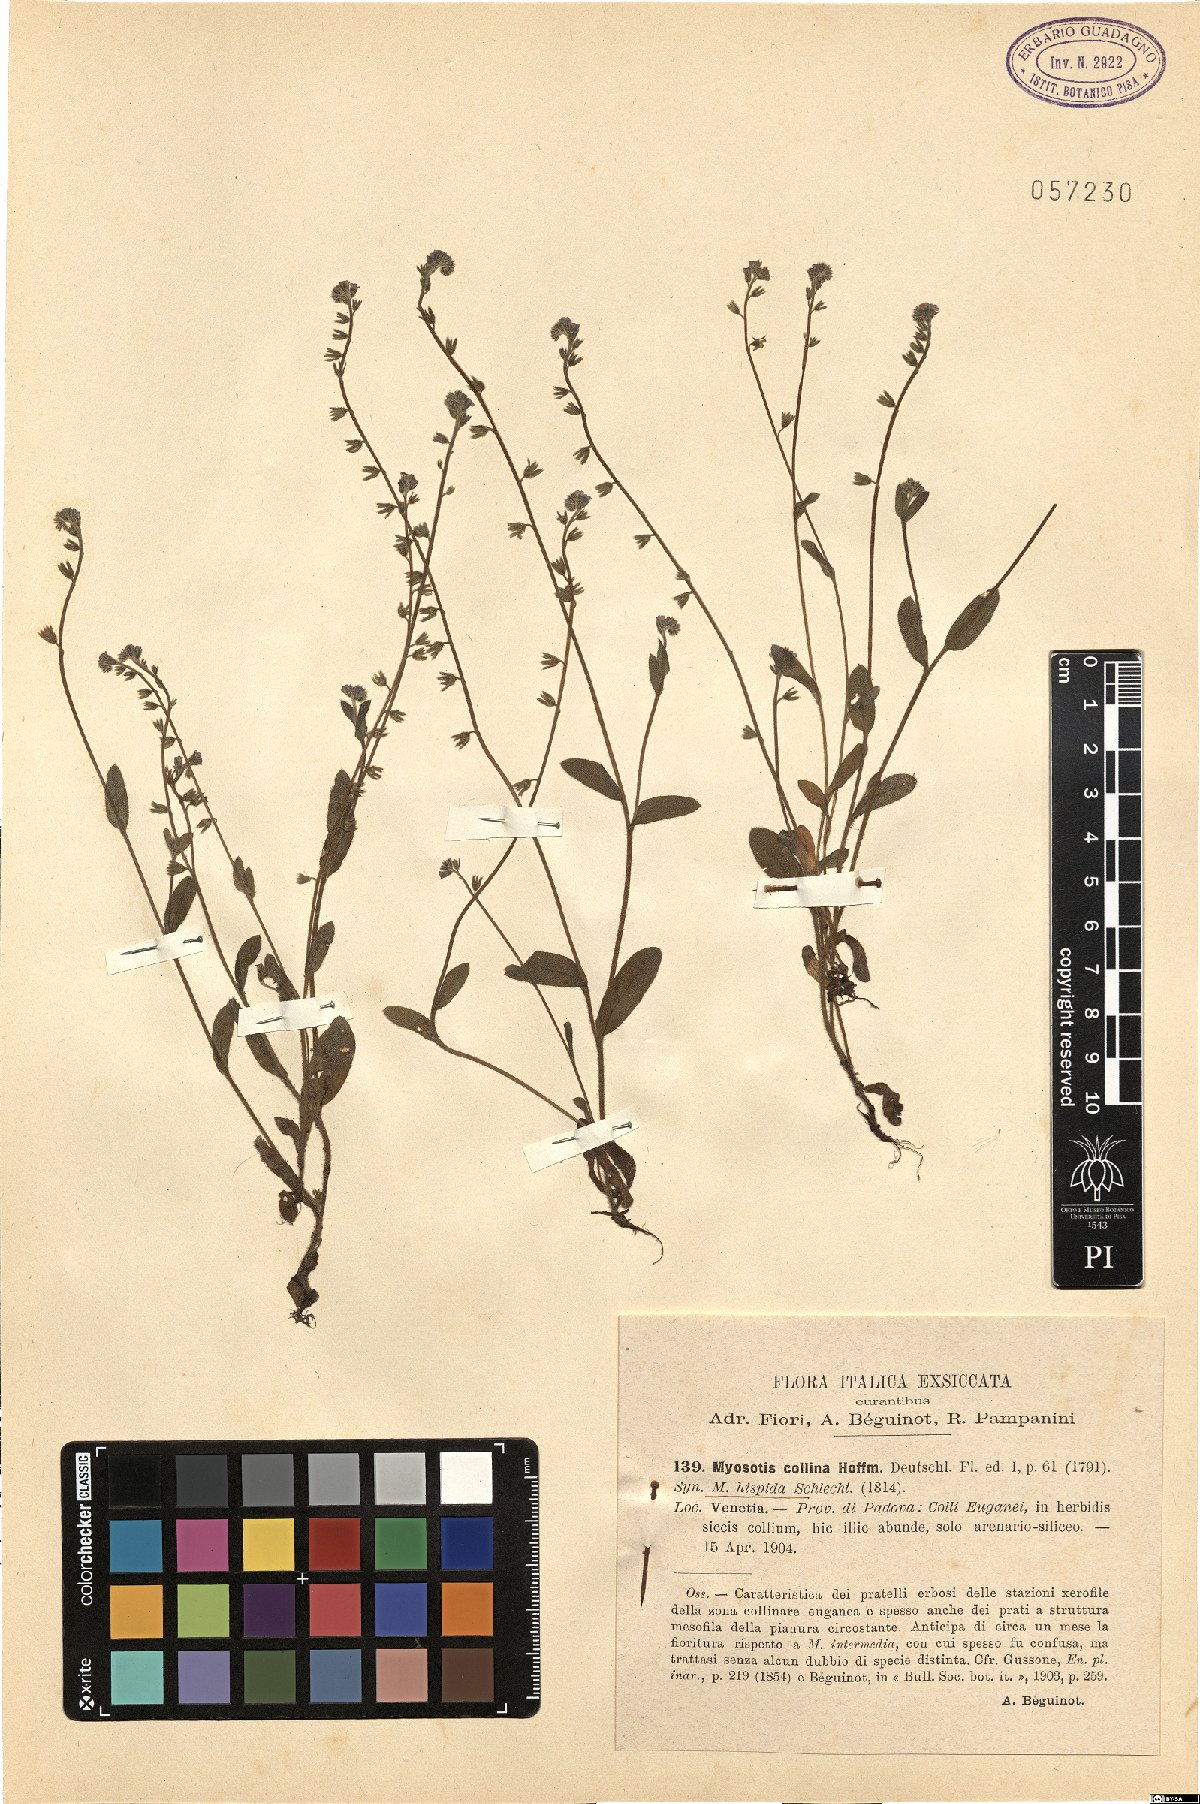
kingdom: Plantae
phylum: Tracheophyta
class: Magnoliopsida
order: Boraginales
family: Boraginaceae
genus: Myosotis
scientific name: Myosotis discolor
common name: Changing forget-me-not
